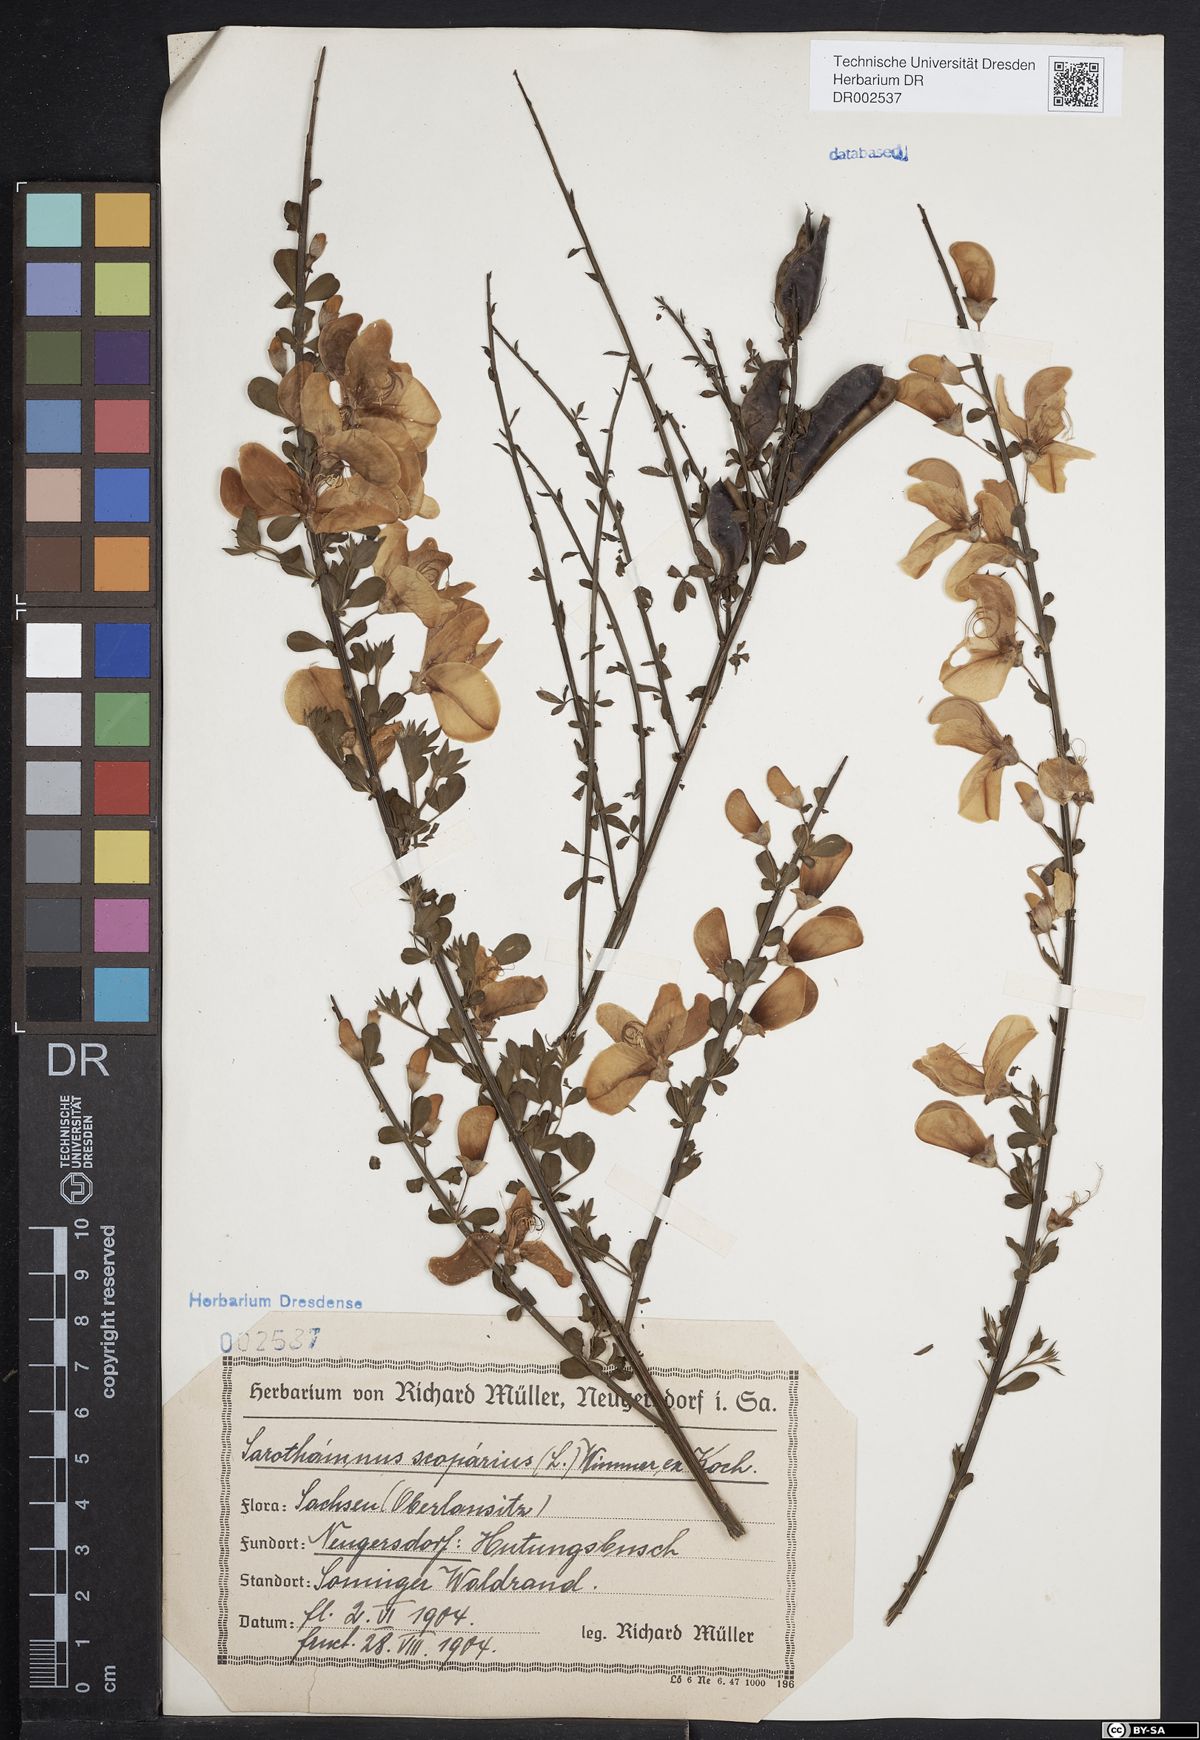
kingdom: Plantae
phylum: Tracheophyta
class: Magnoliopsida
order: Fabales
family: Fabaceae
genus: Cytisus
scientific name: Cytisus scoparius
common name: Scotch broom
